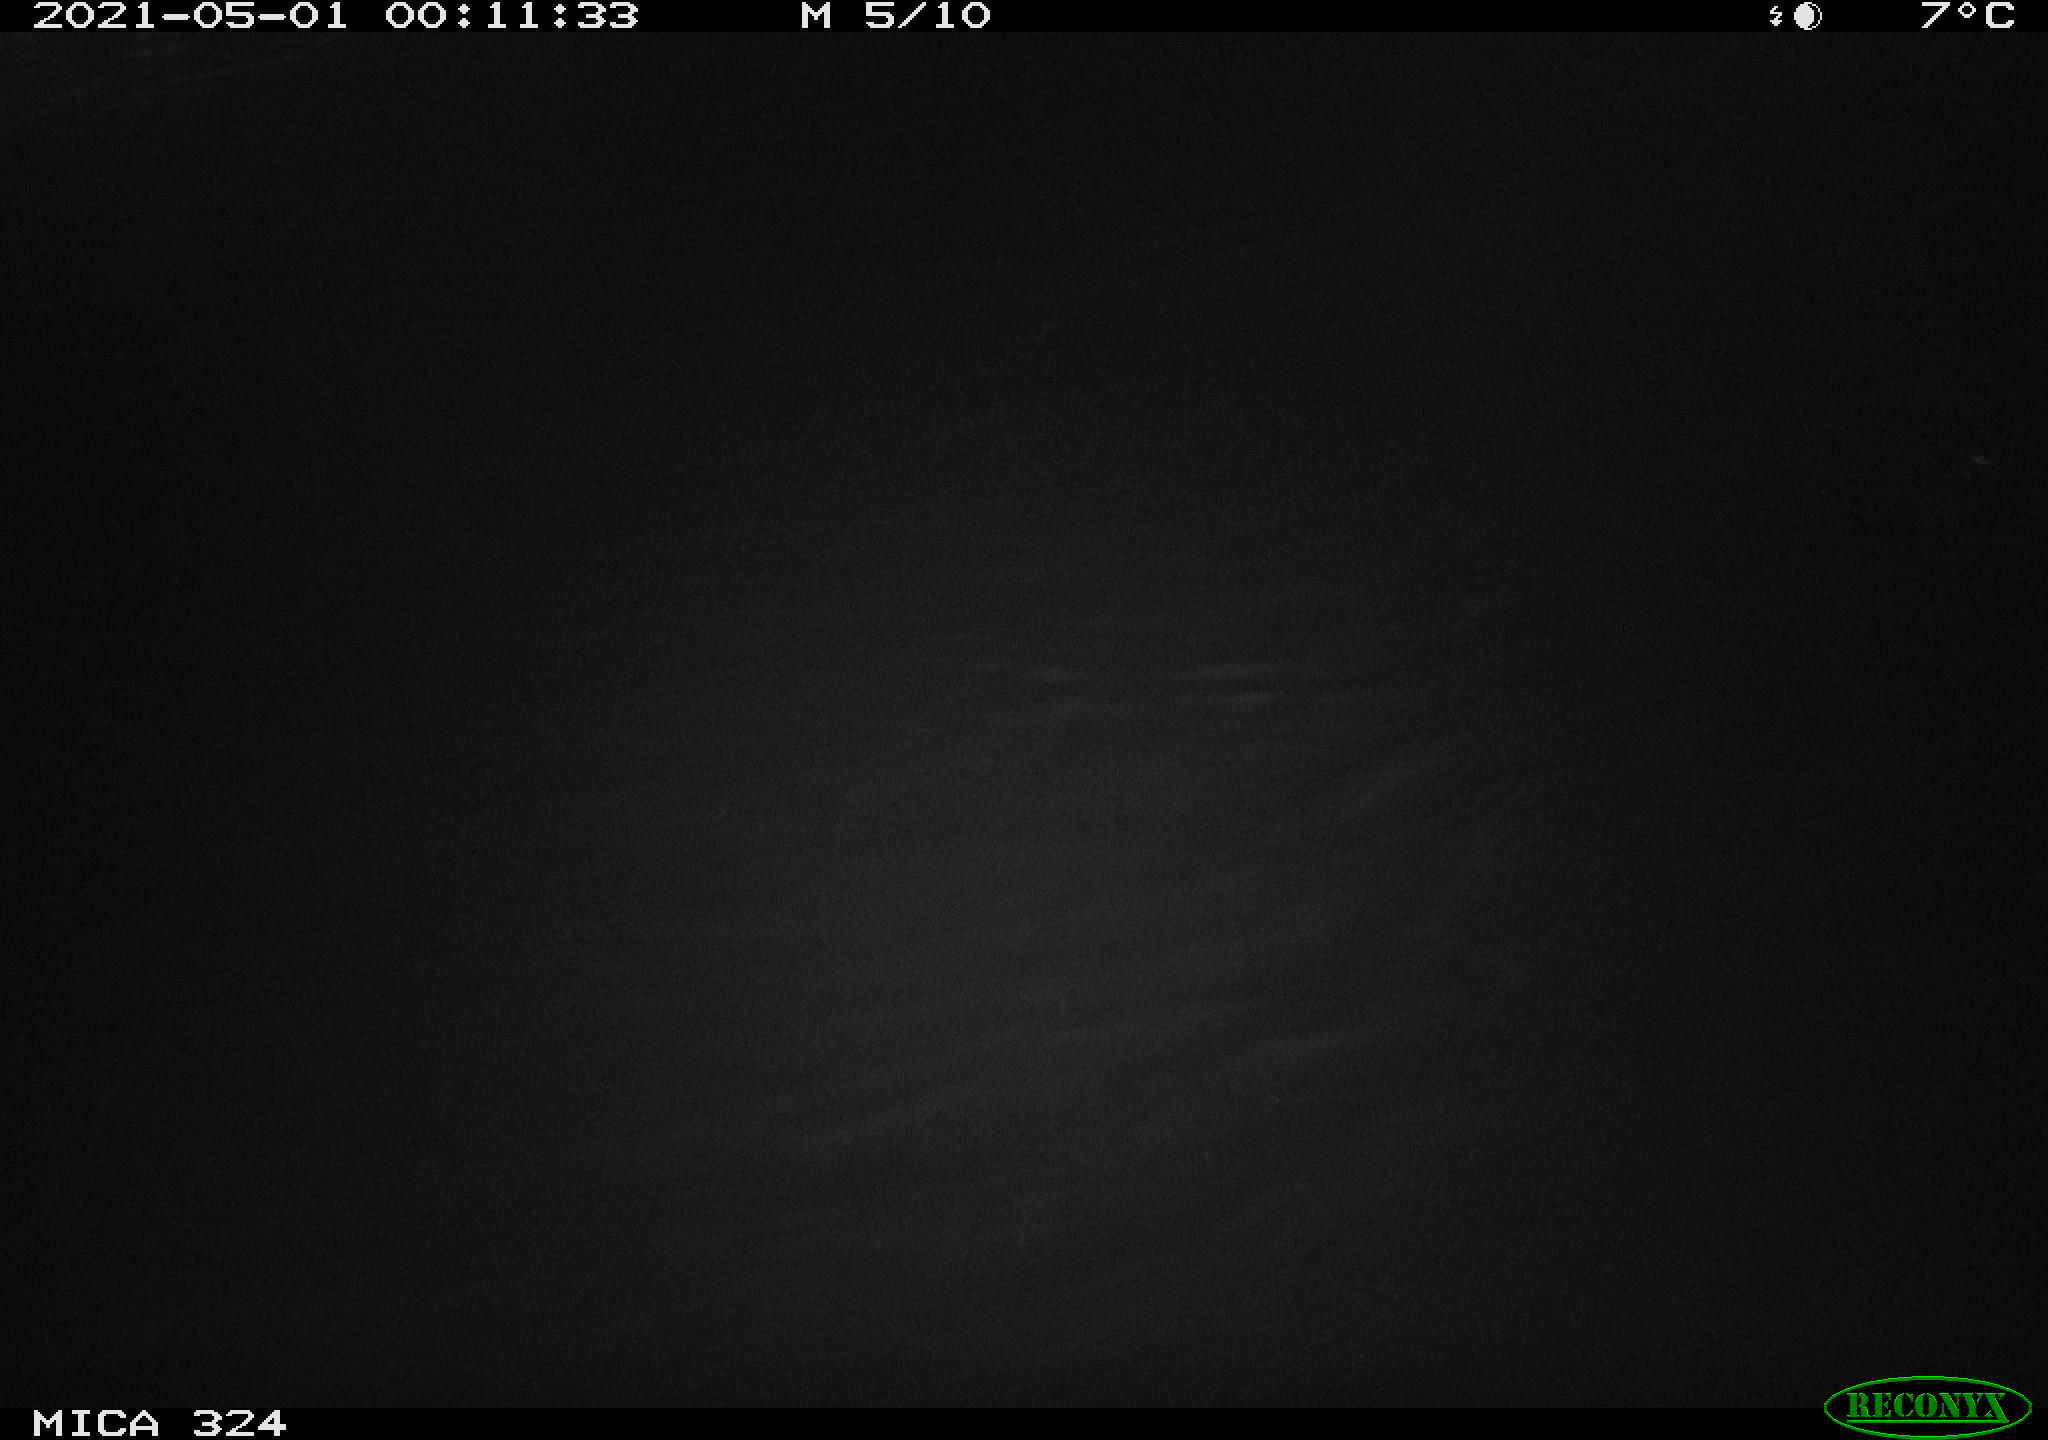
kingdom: Animalia
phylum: Chordata
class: Mammalia
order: Rodentia
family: Cricetidae
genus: Ondatra
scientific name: Ondatra zibethicus
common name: Muskrat
